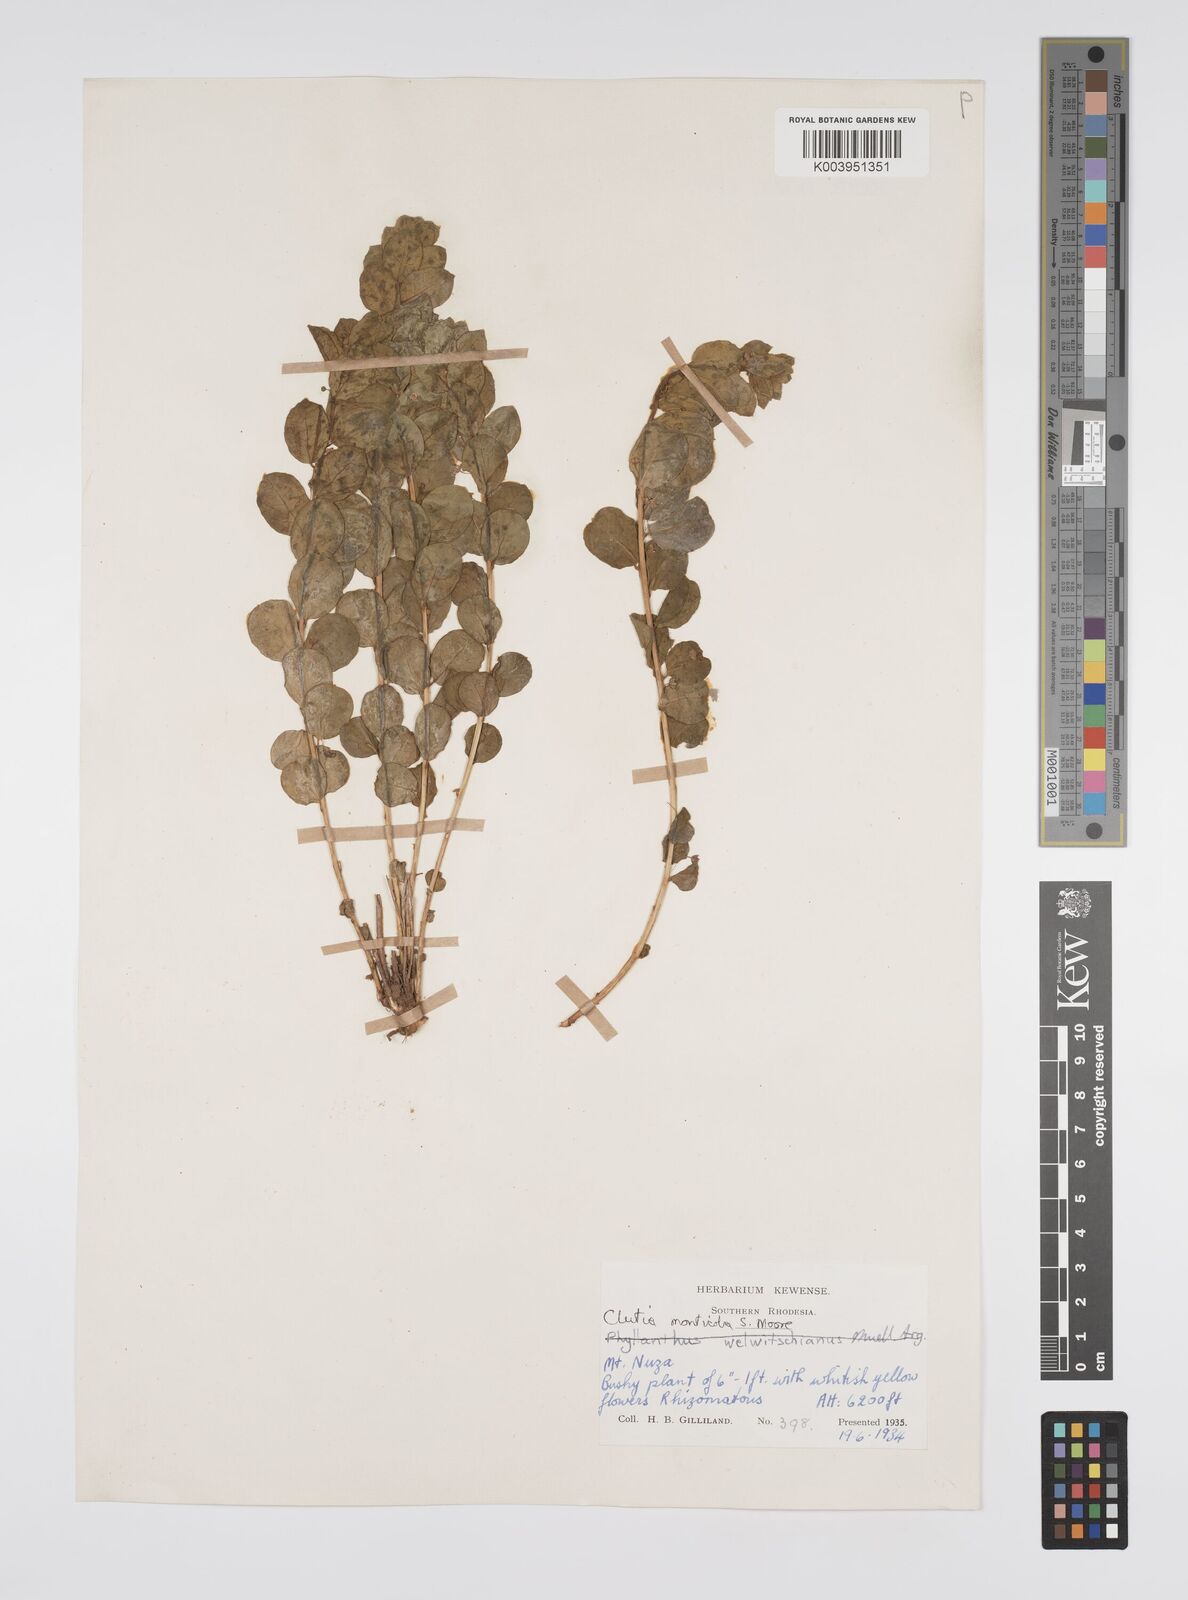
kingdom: Plantae
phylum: Tracheophyta
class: Magnoliopsida
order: Malpighiales
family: Peraceae
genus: Clutia
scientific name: Clutia monticola
